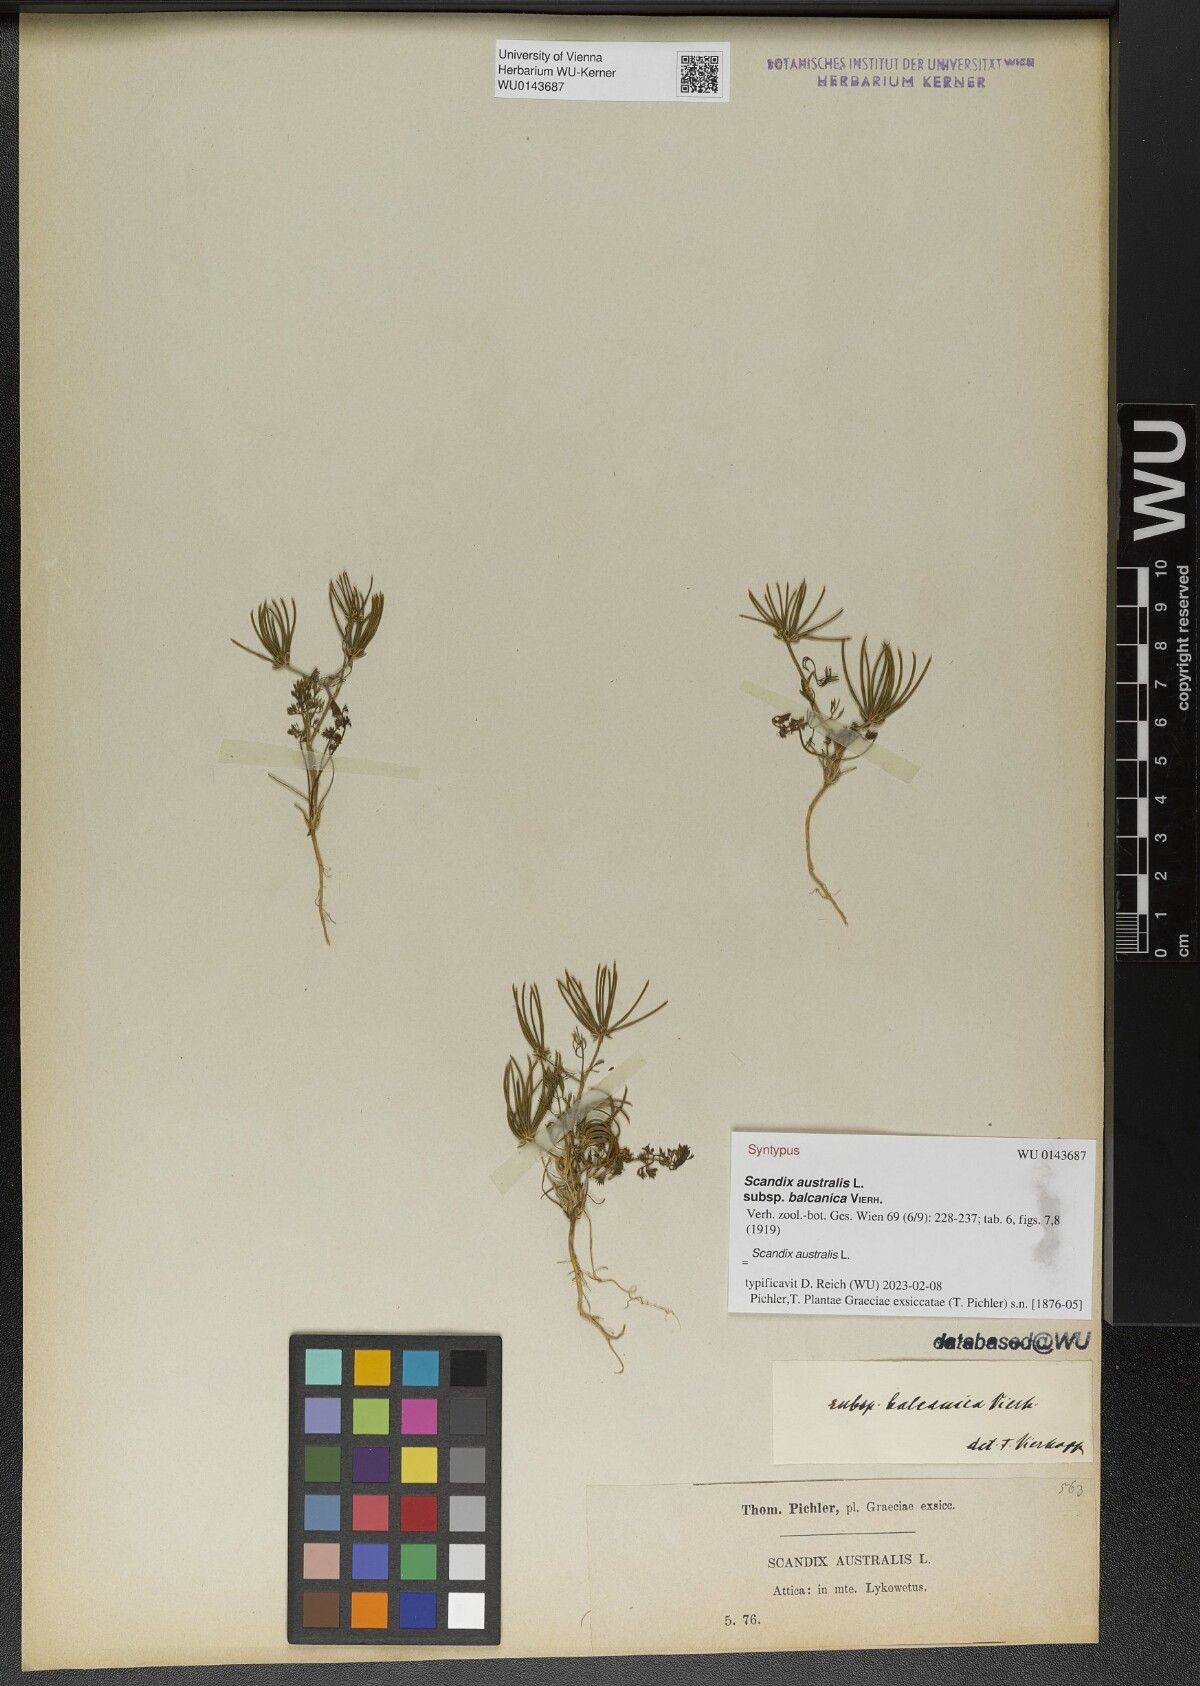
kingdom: Plantae
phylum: Tracheophyta
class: Magnoliopsida
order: Apiales
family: Apiaceae
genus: Scandix
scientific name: Scandix australis
